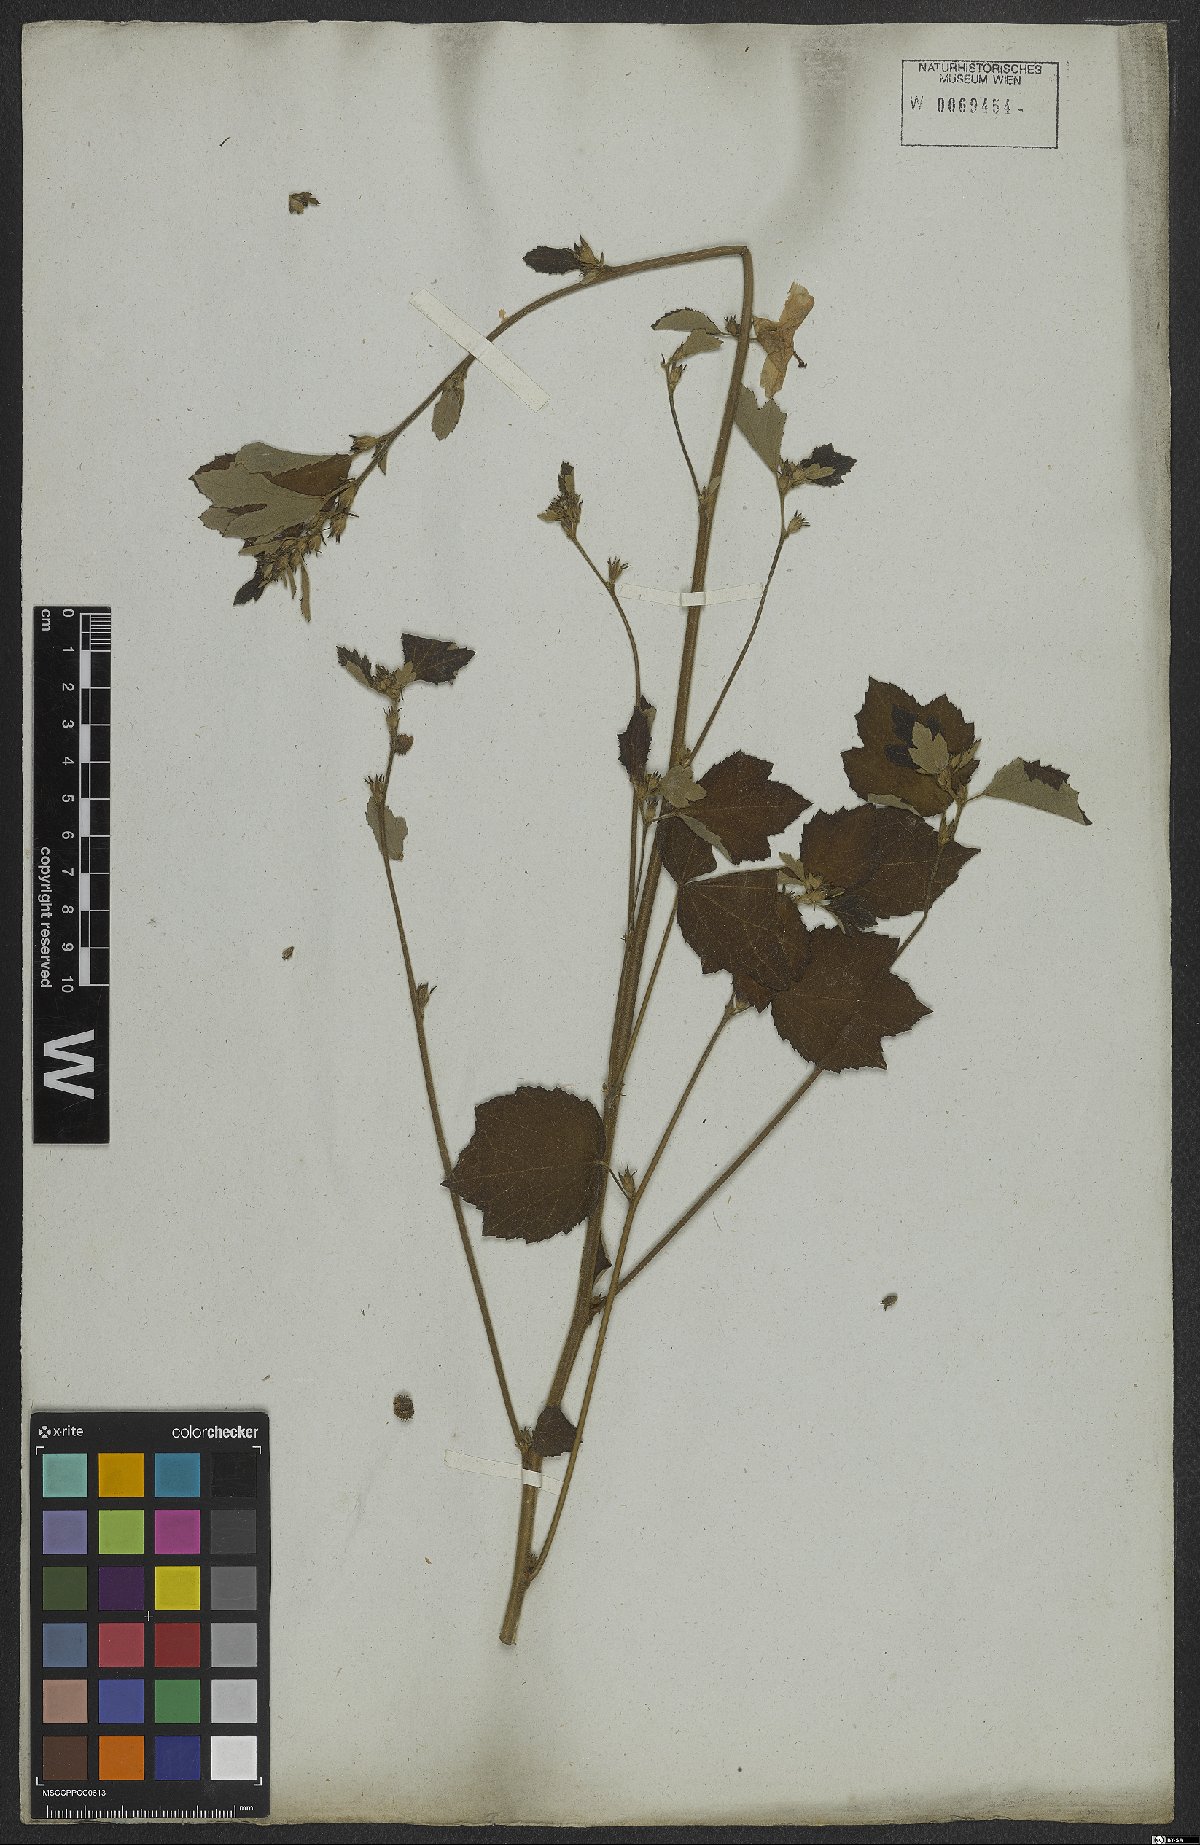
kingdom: Plantae
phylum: Tracheophyta
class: Magnoliopsida
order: Malvales
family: Malvaceae
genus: Urena
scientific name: Urena lobata
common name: Caesarweed
